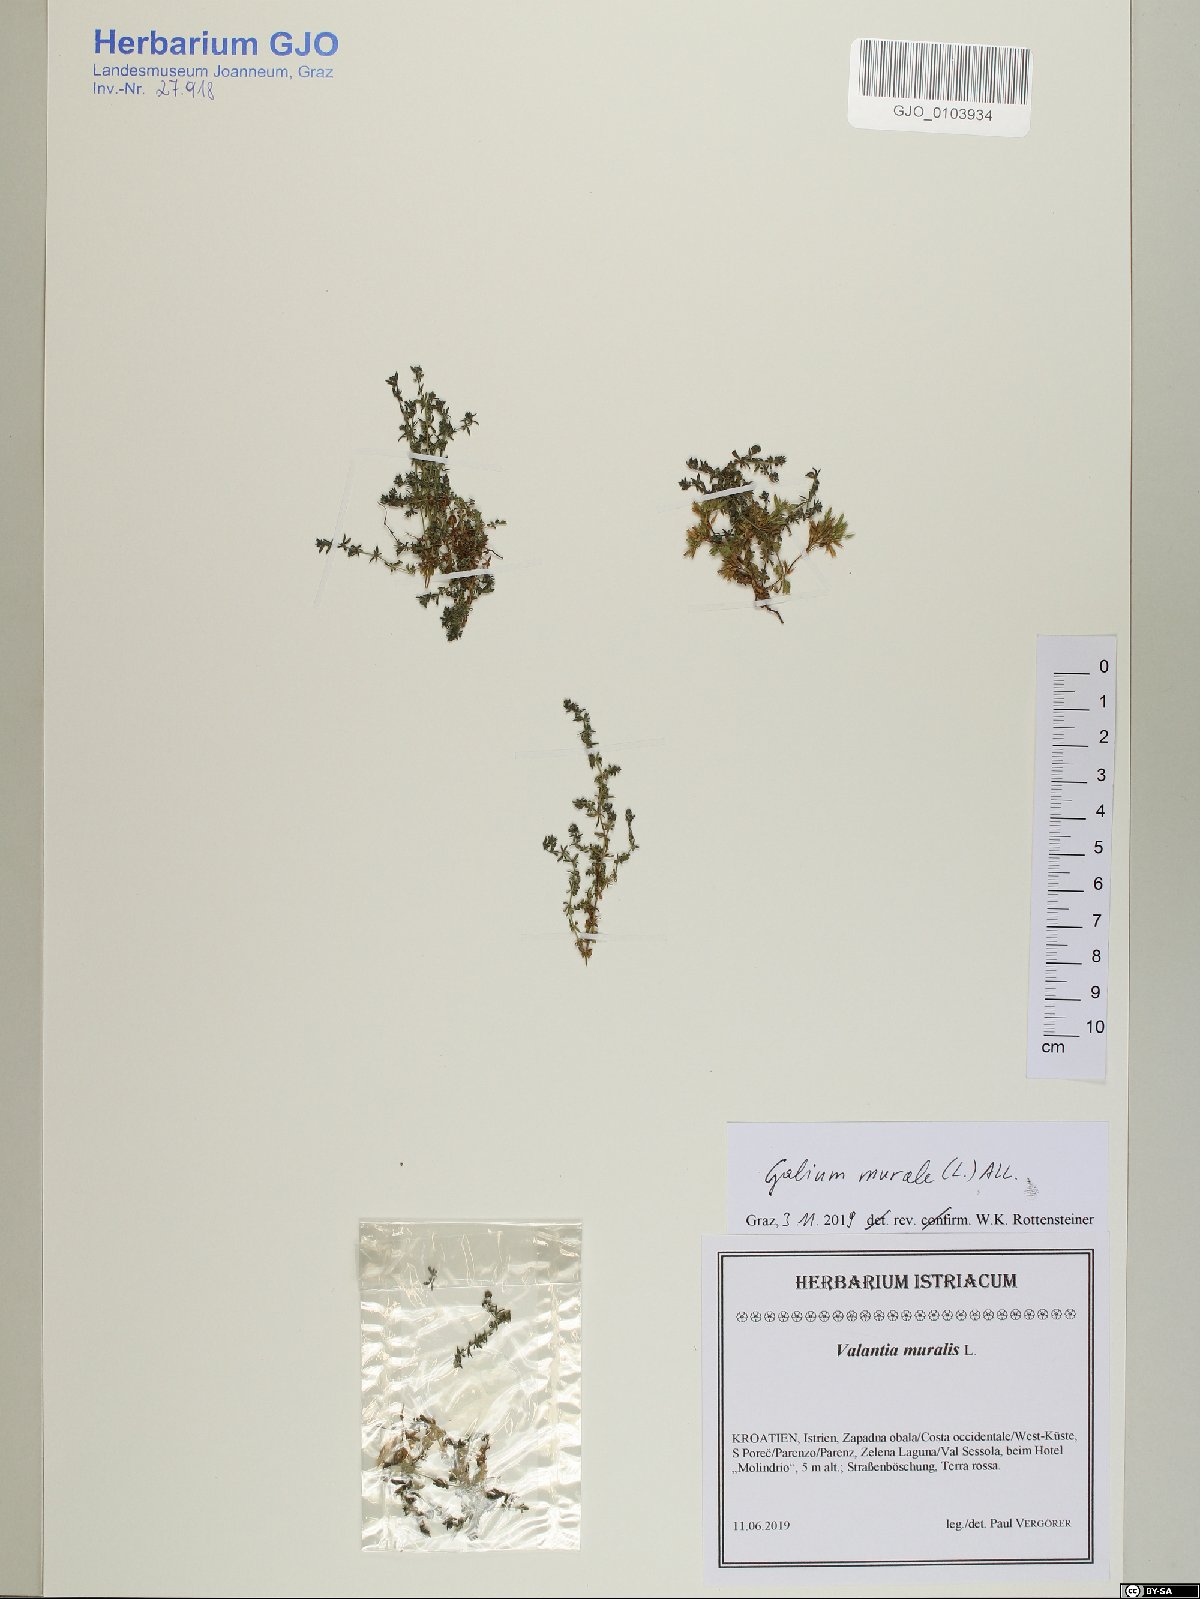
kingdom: Plantae
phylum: Tracheophyta
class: Magnoliopsida
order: Gentianales
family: Rubiaceae
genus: Galium
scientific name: Galium murale
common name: Yellow wall bedstraw
